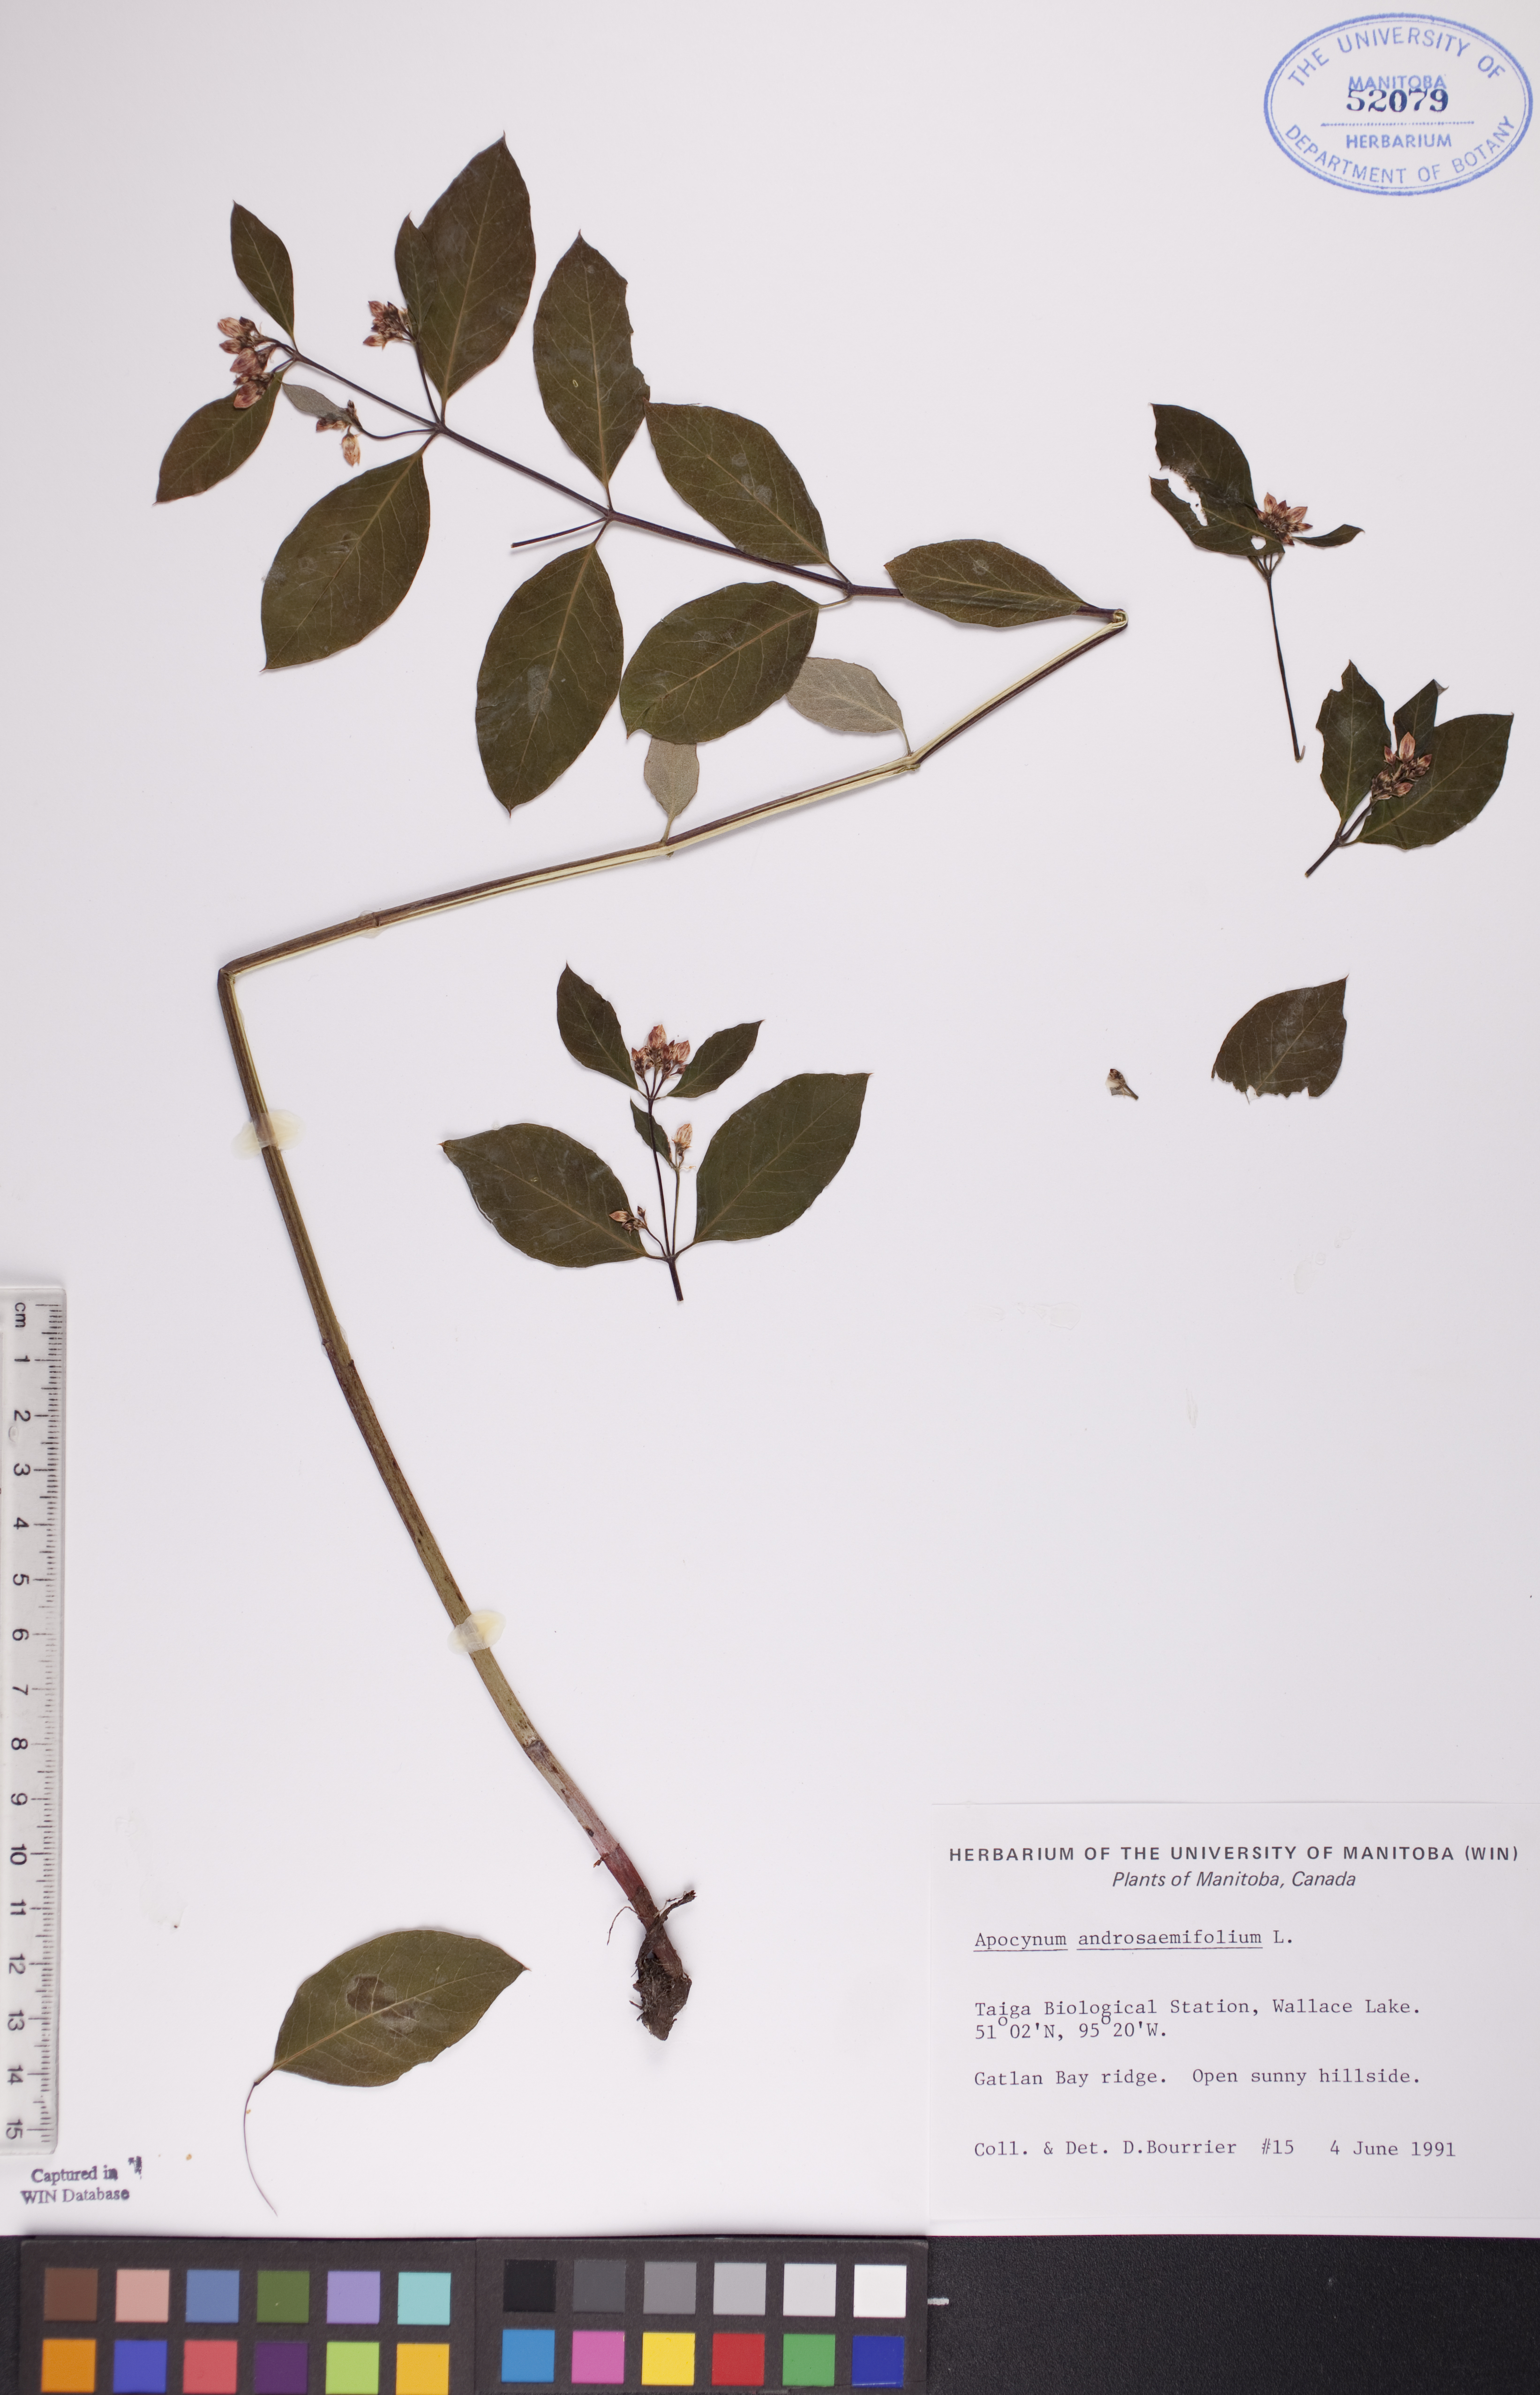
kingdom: Plantae
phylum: Tracheophyta
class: Magnoliopsida
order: Gentianales
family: Apocynaceae
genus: Apocynum
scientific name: Apocynum androsaemifolium
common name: Spreading dogbane
